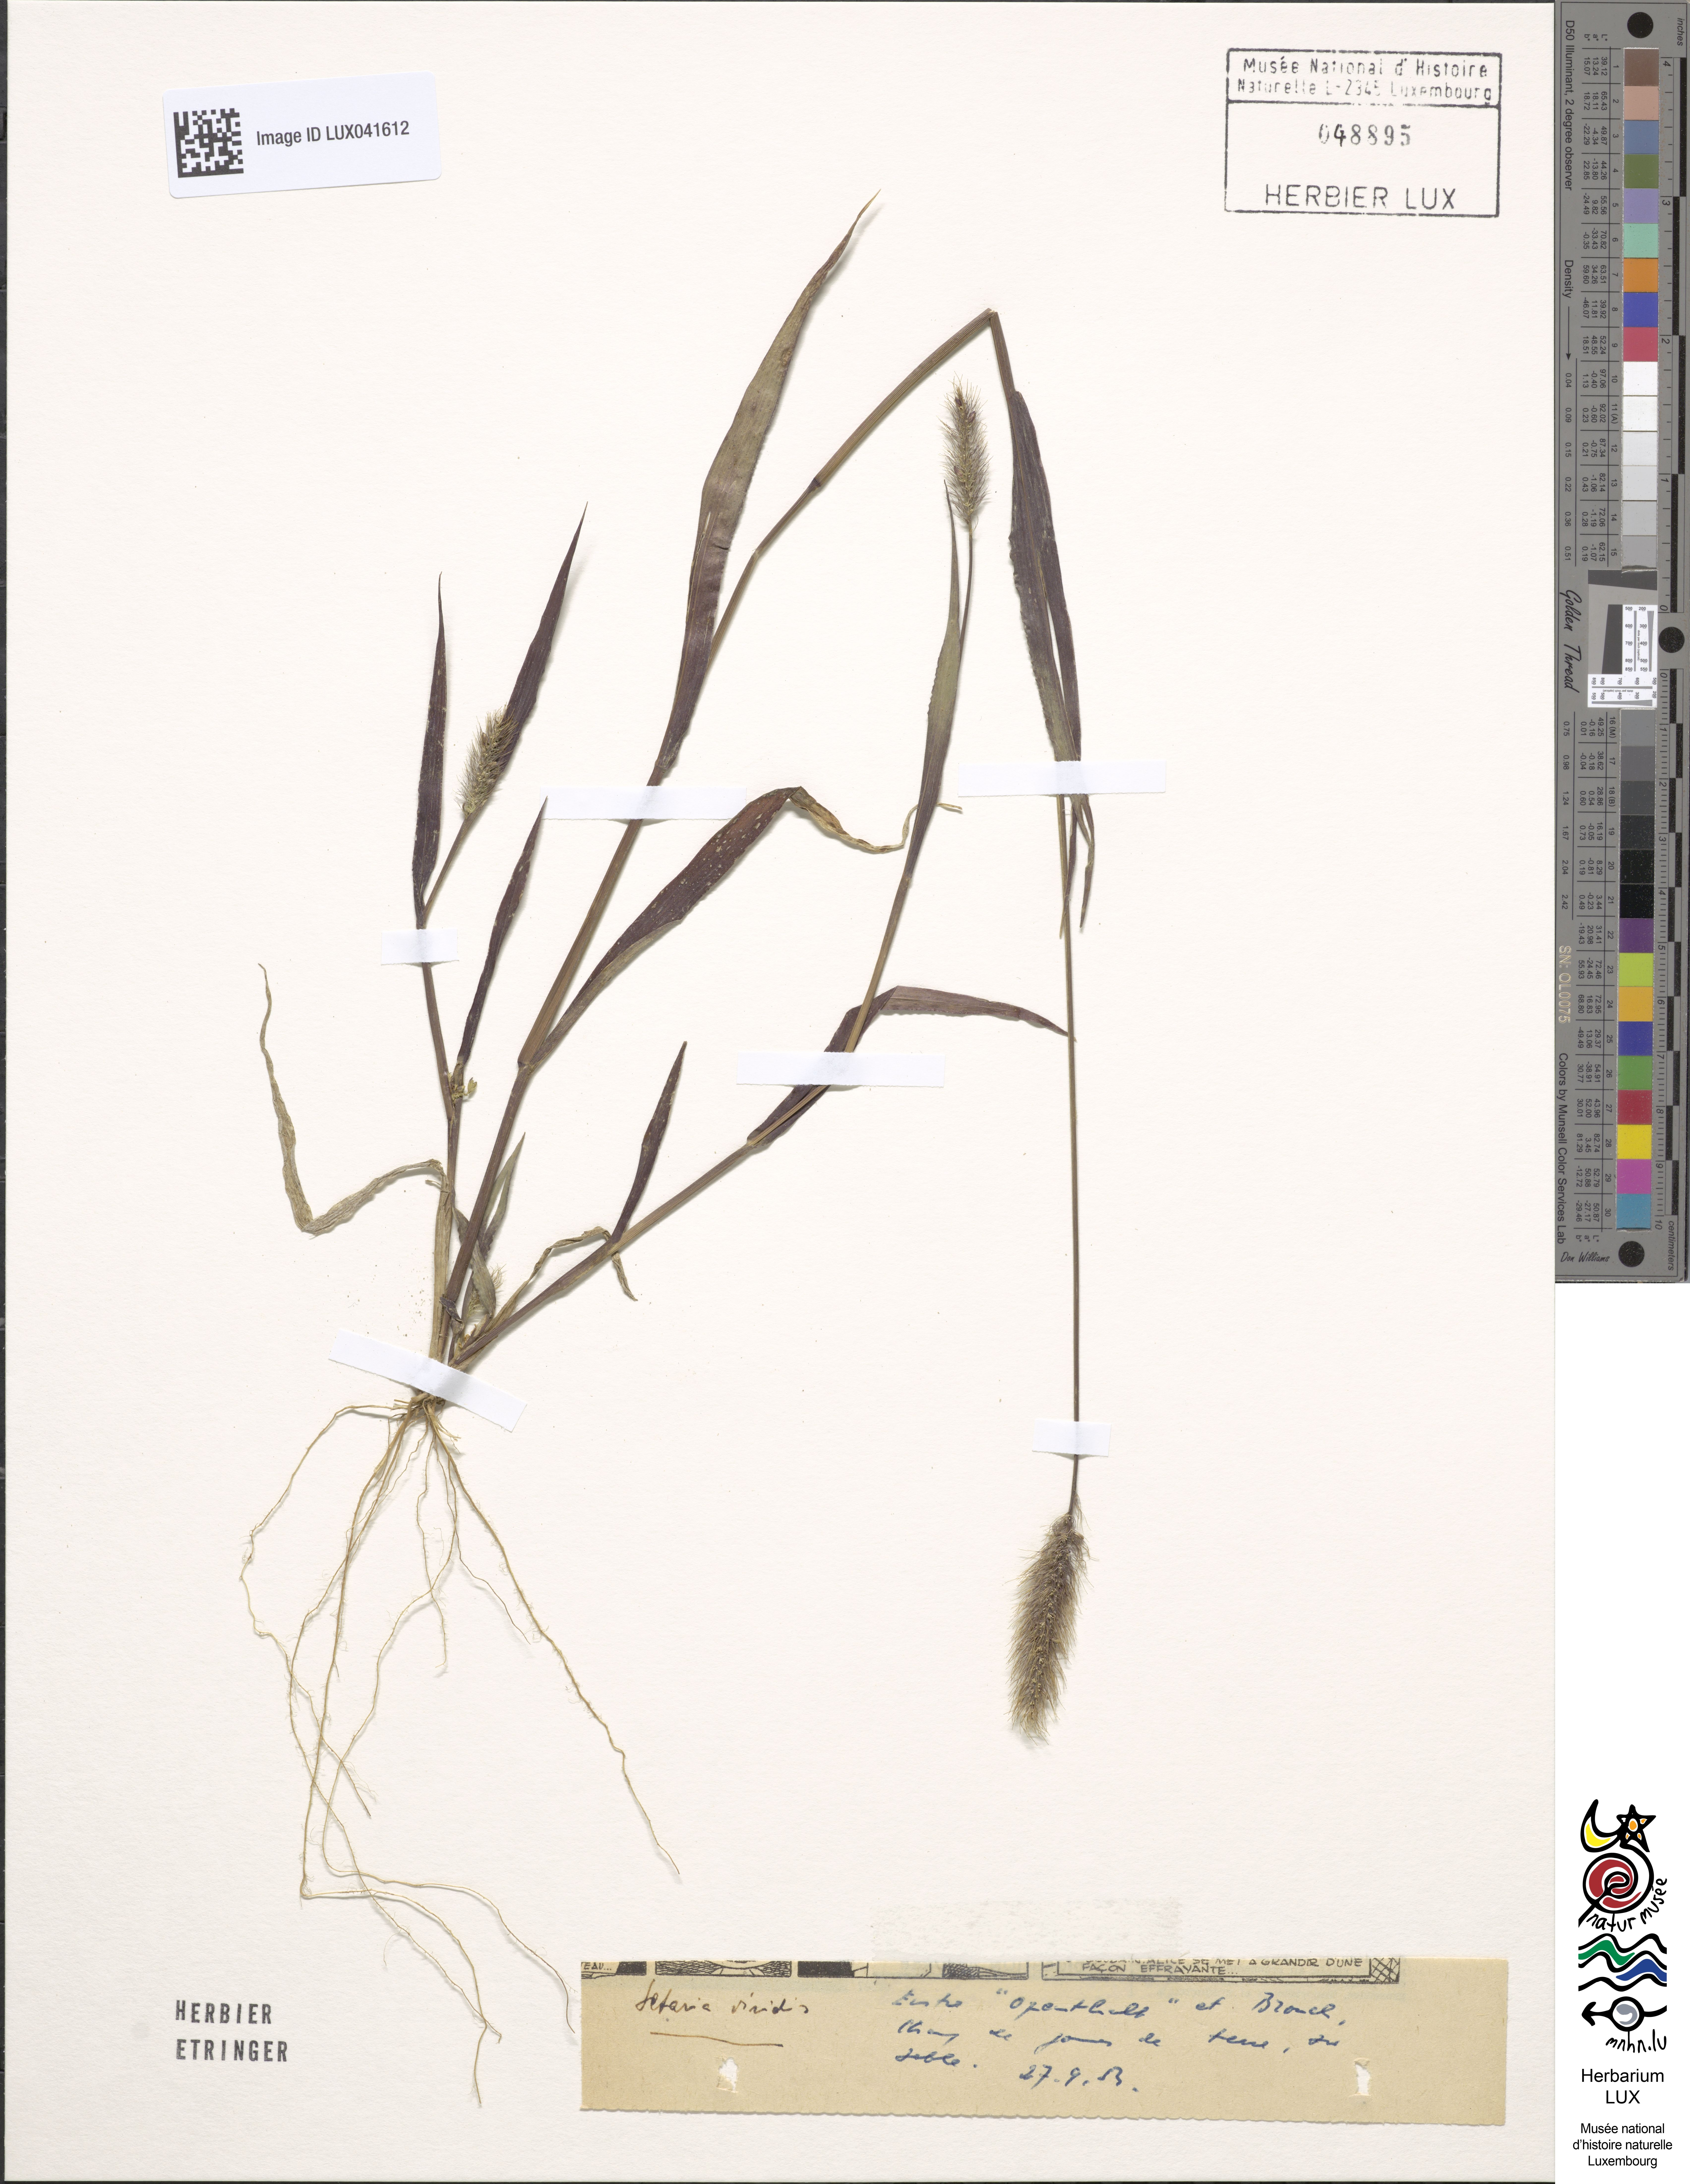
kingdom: Plantae
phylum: Tracheophyta
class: Liliopsida
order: Poales
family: Poaceae
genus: Setaria
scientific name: Setaria viridis
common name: Green bristlegrass
